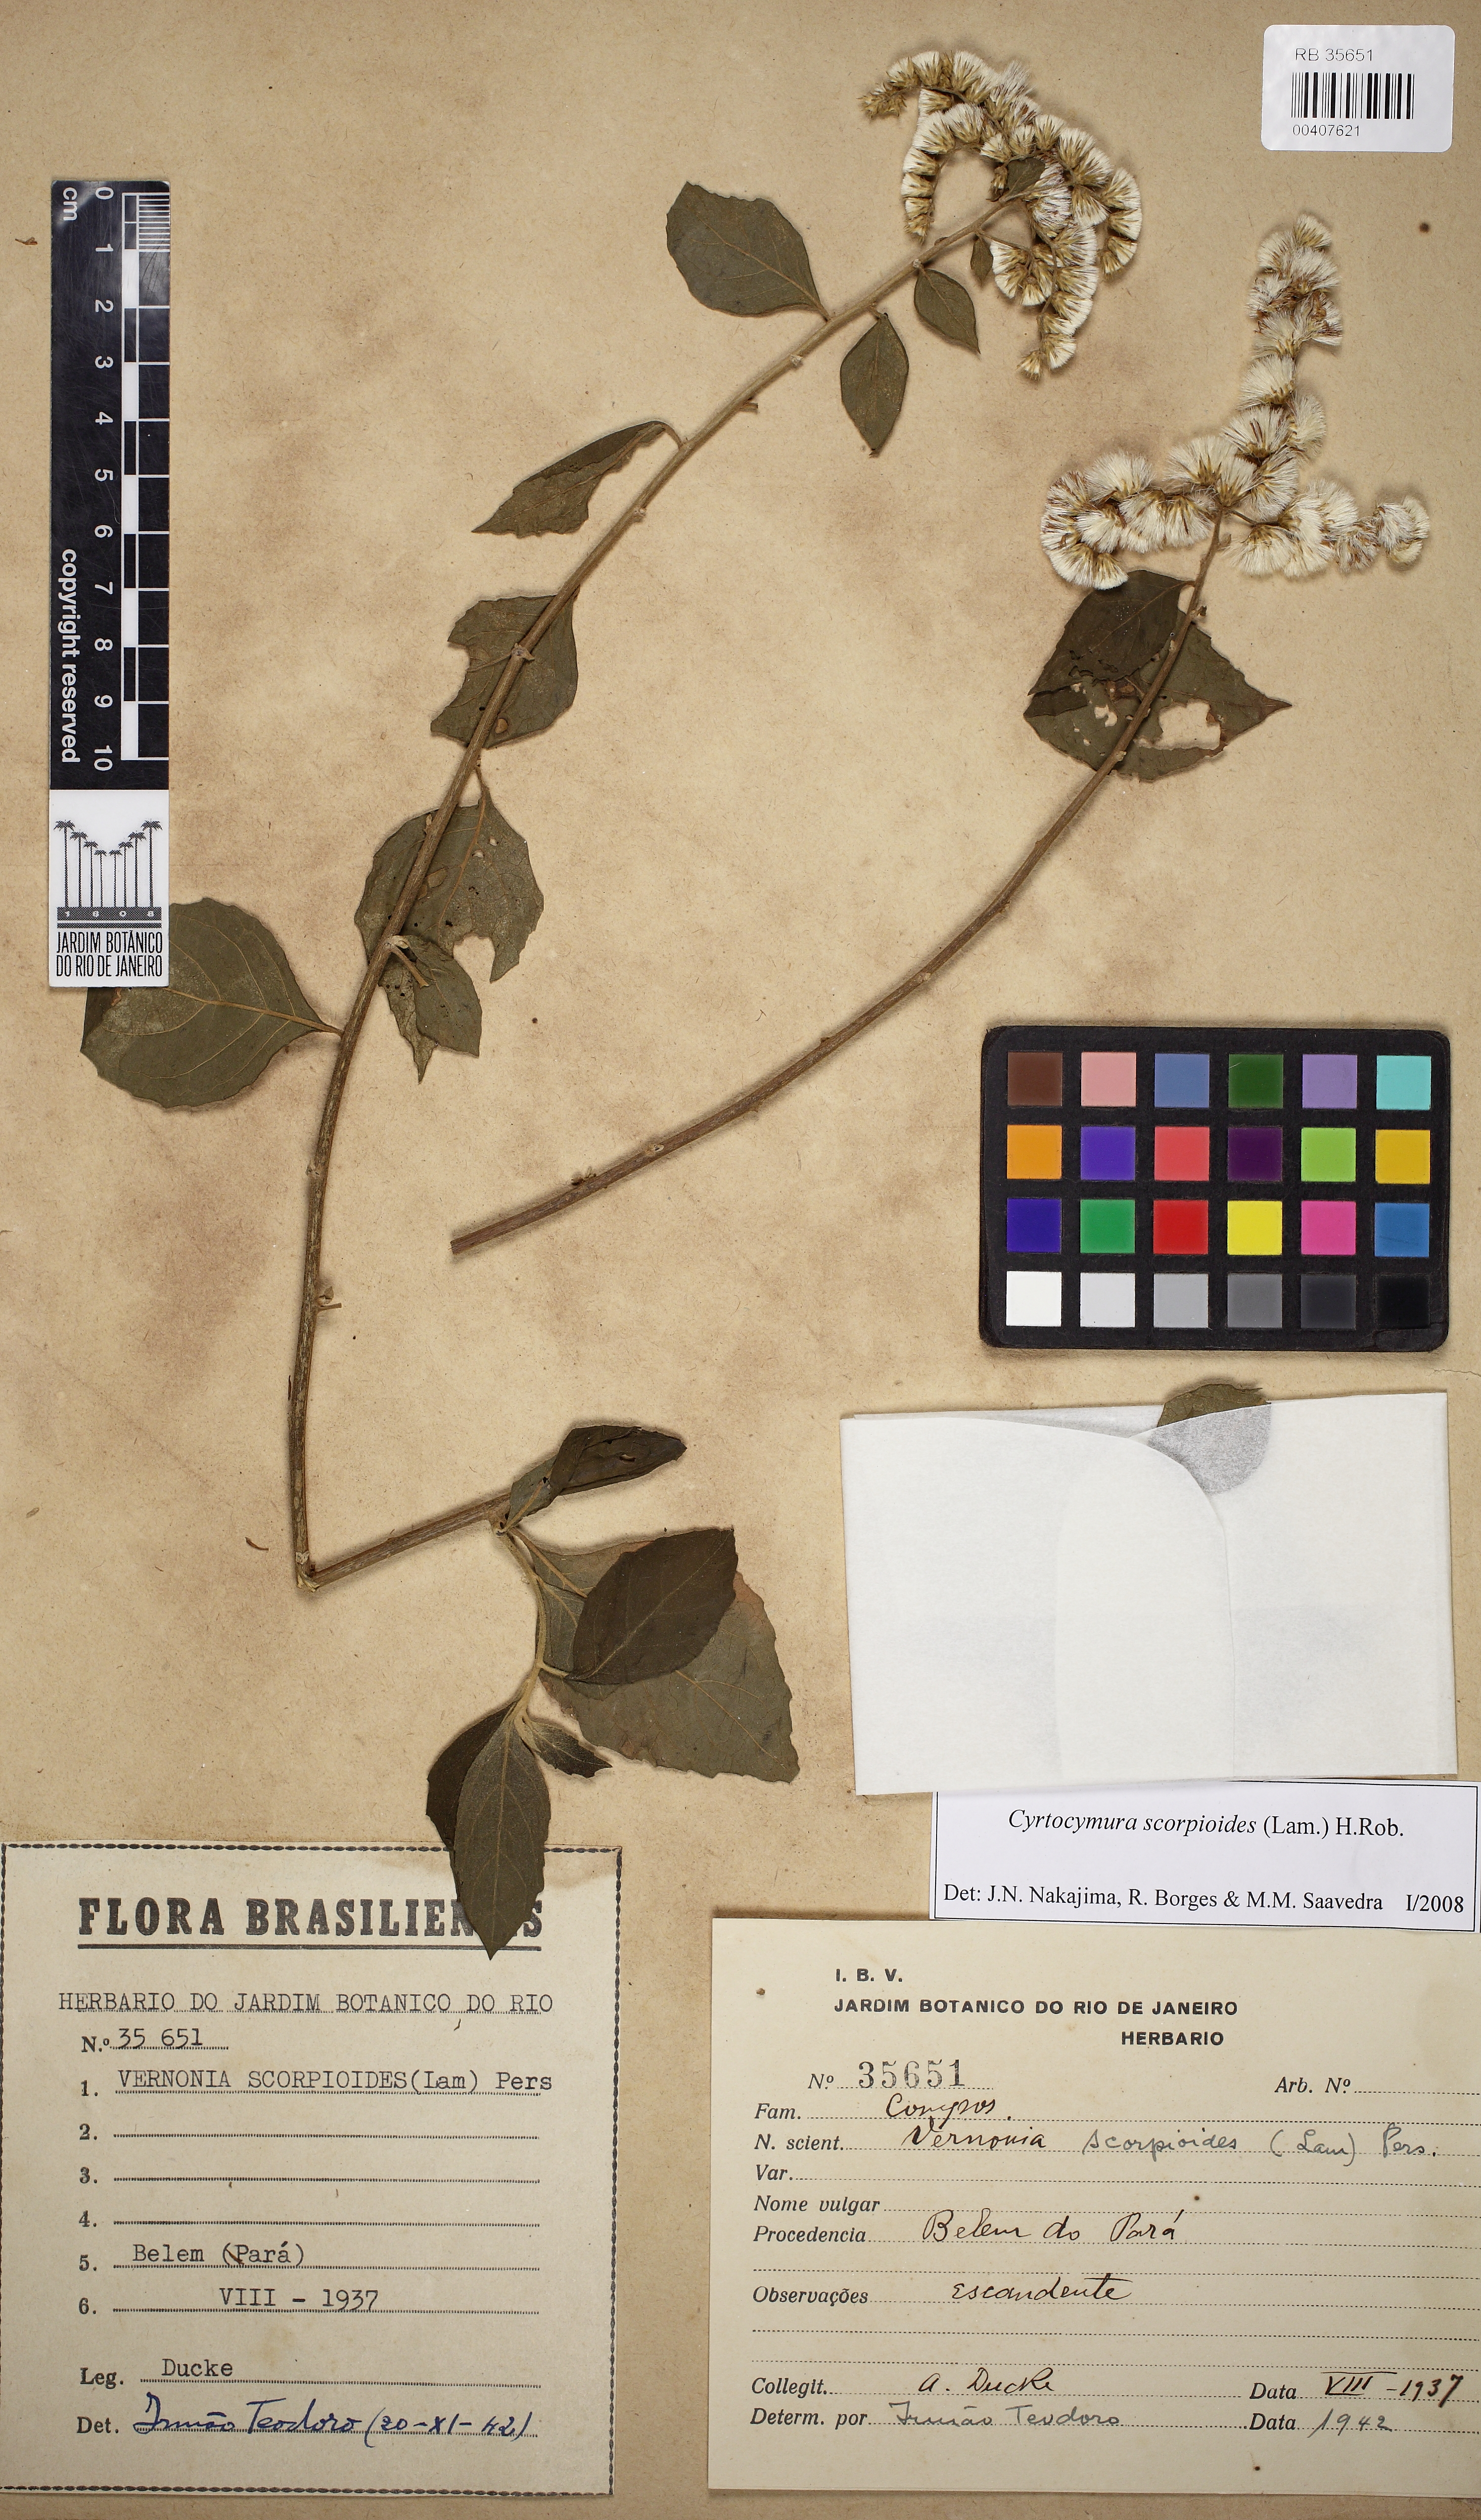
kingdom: Plantae
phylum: Tracheophyta
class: Magnoliopsida
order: Asterales
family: Asteraceae
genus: Cyrtocymura
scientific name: Cyrtocymura scorpioides
